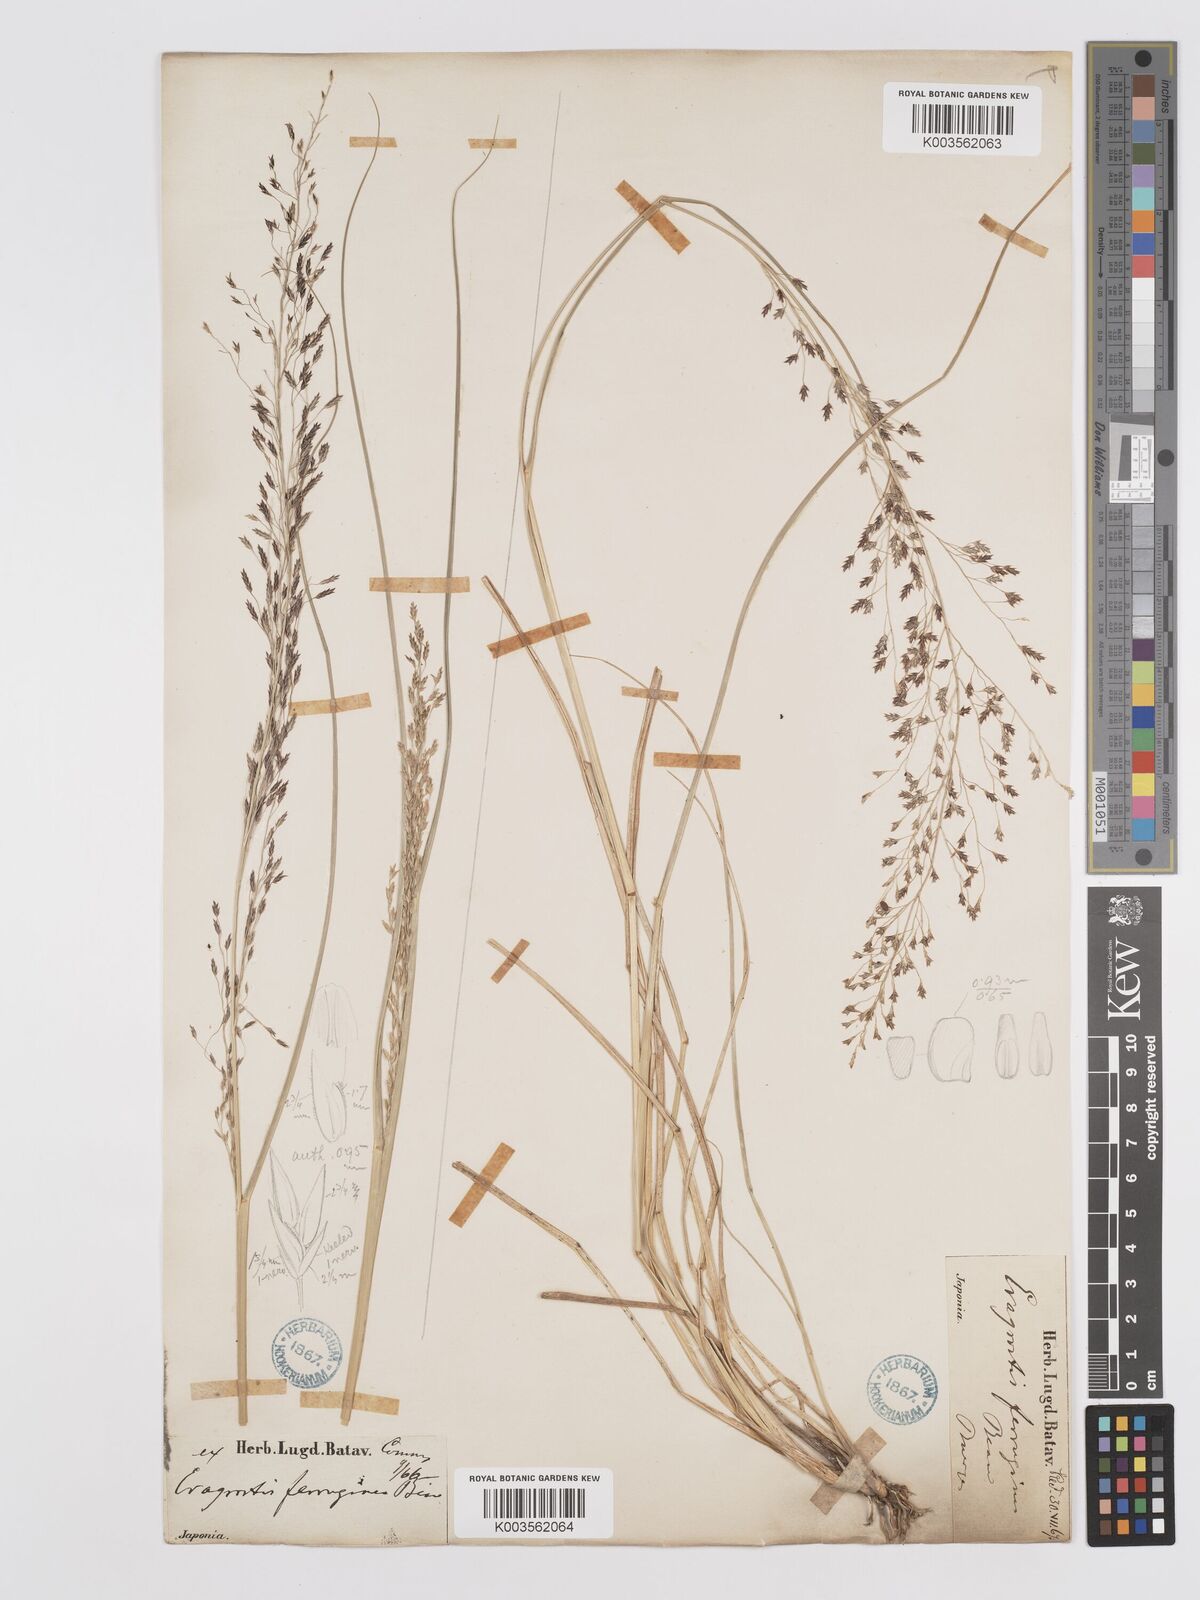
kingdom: Plantae
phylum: Tracheophyta
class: Liliopsida
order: Poales
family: Poaceae
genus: Eragrostis
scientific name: Eragrostis ferruginea
